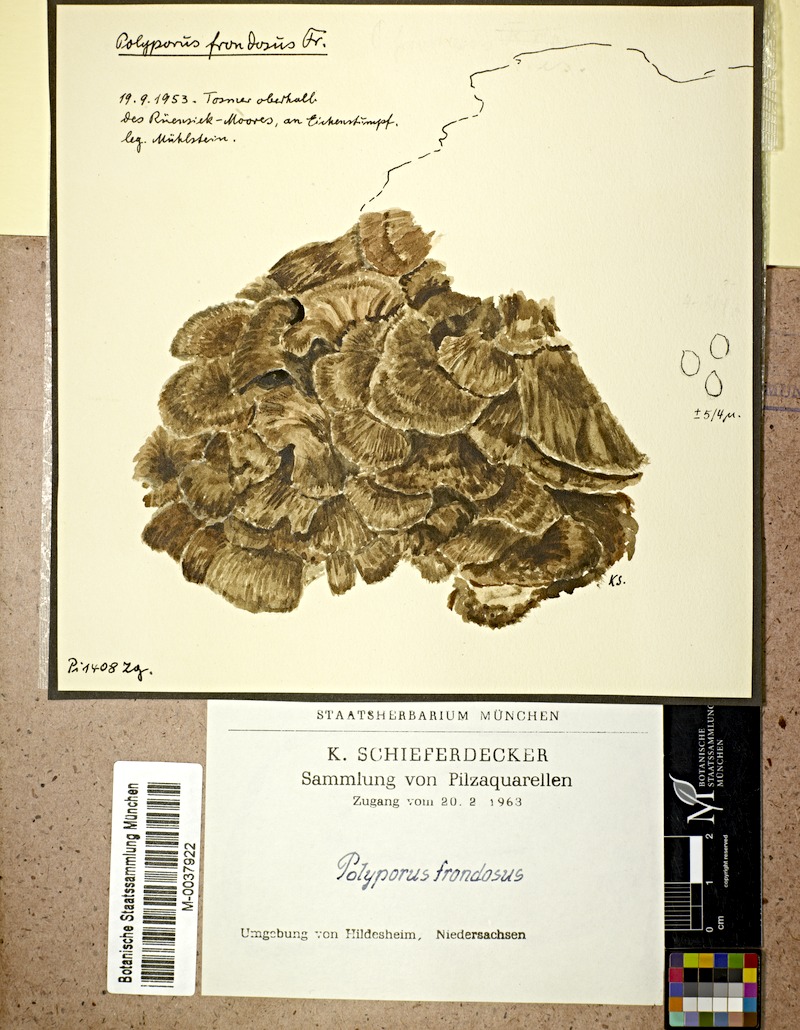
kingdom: Fungi
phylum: Basidiomycota
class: Agaricomycetes
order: Polyporales
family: Grifolaceae
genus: Grifola
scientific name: Grifola frondosa
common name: Hen of the woods
